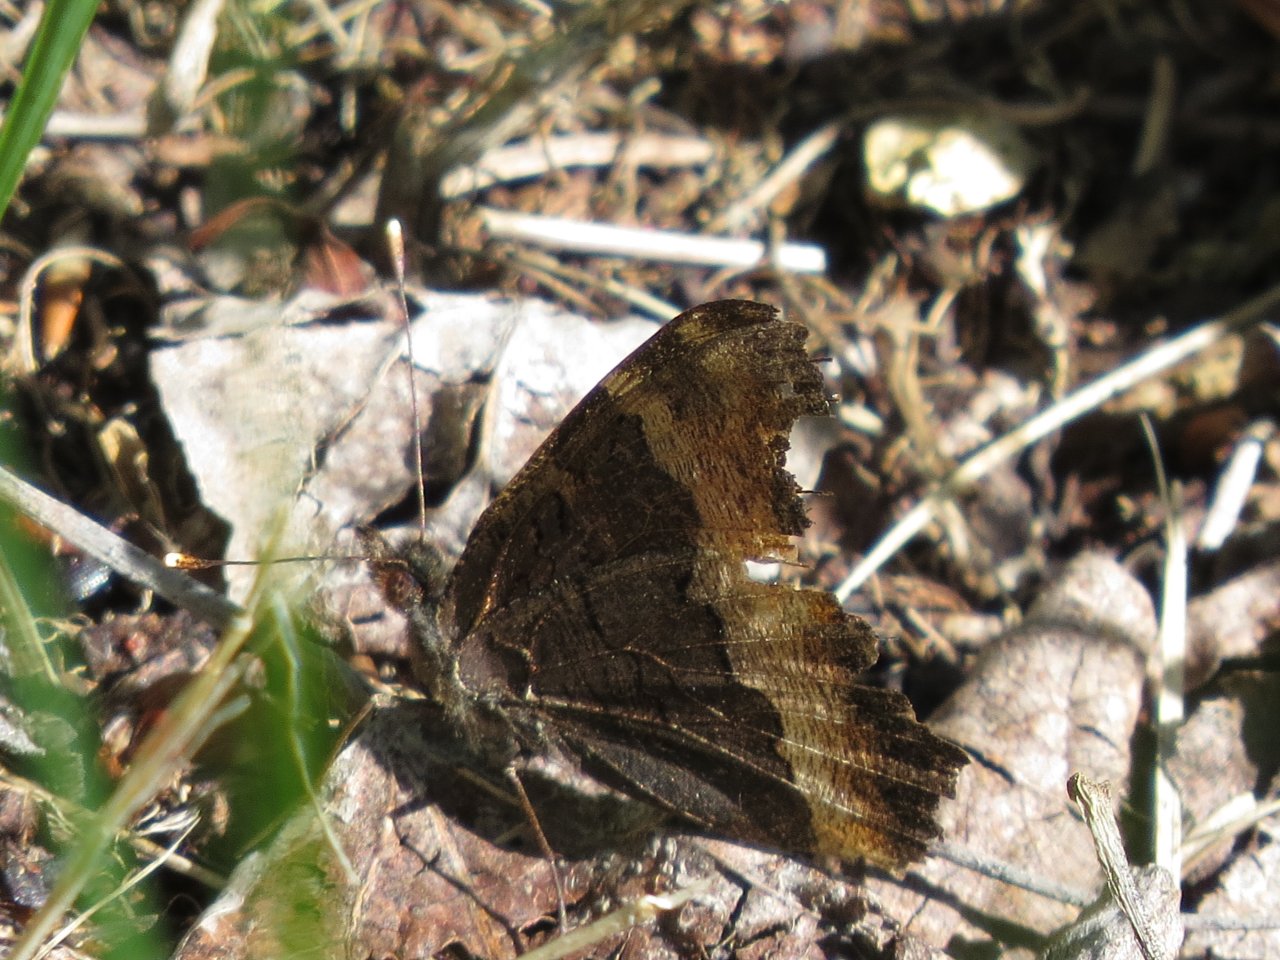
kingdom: Animalia
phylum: Arthropoda
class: Insecta
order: Lepidoptera
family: Nymphalidae
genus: Aglais
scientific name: Aglais milberti
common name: Milbert's Tortoiseshell
